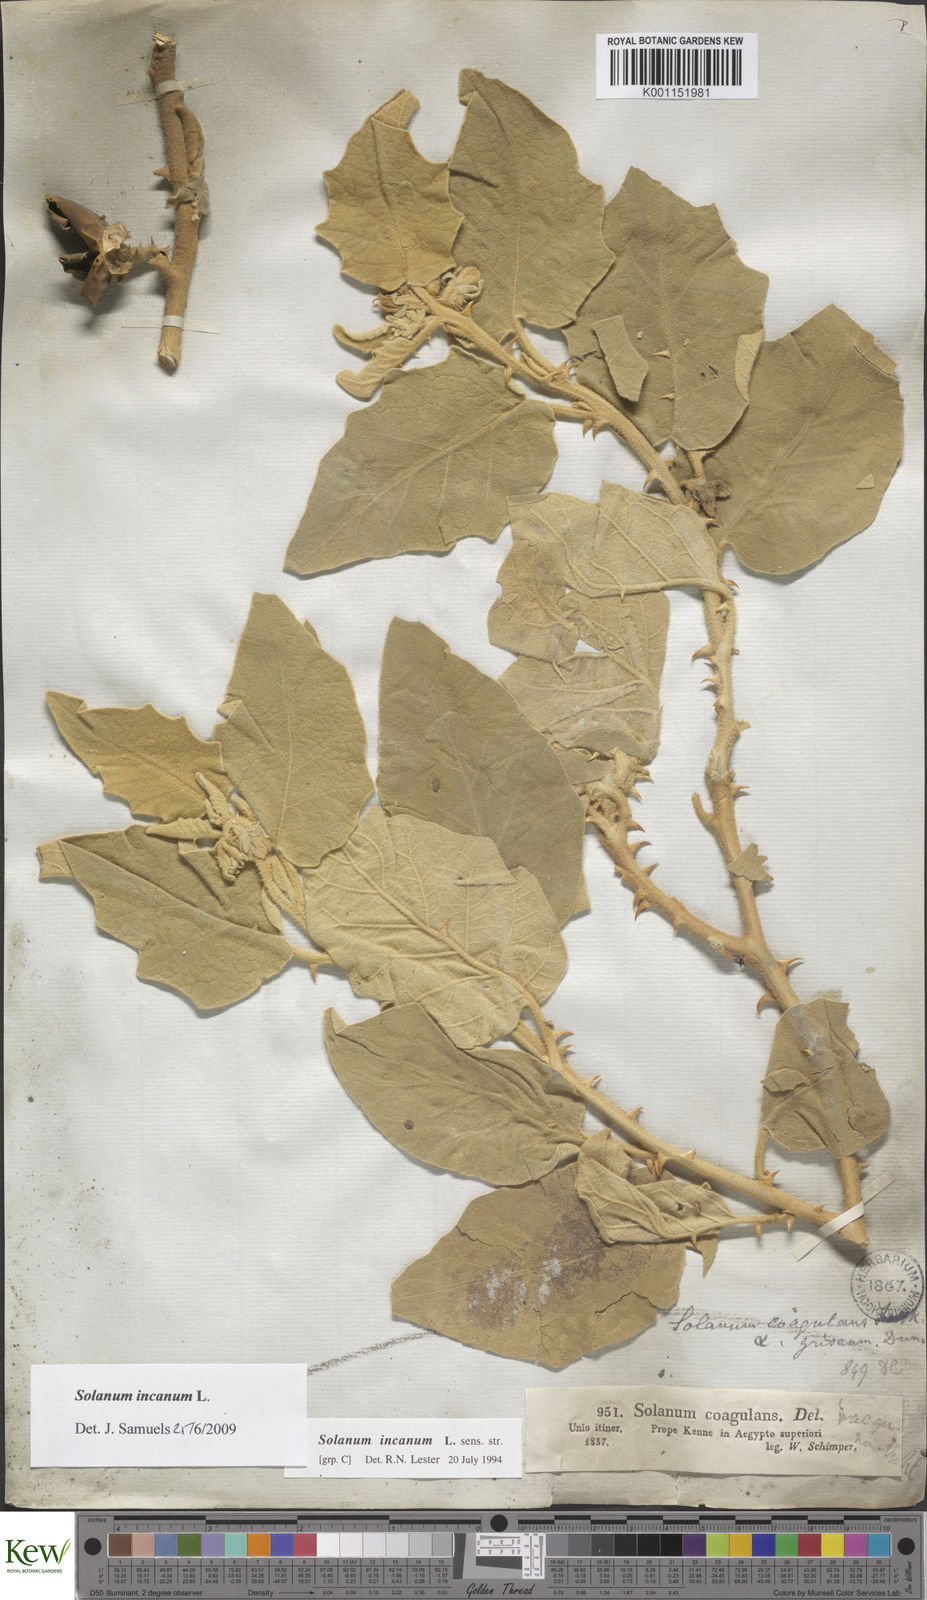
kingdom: Plantae
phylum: Tracheophyta
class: Magnoliopsida
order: Solanales
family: Solanaceae
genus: Solanum
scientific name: Solanum incanum
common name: Bitter apple
